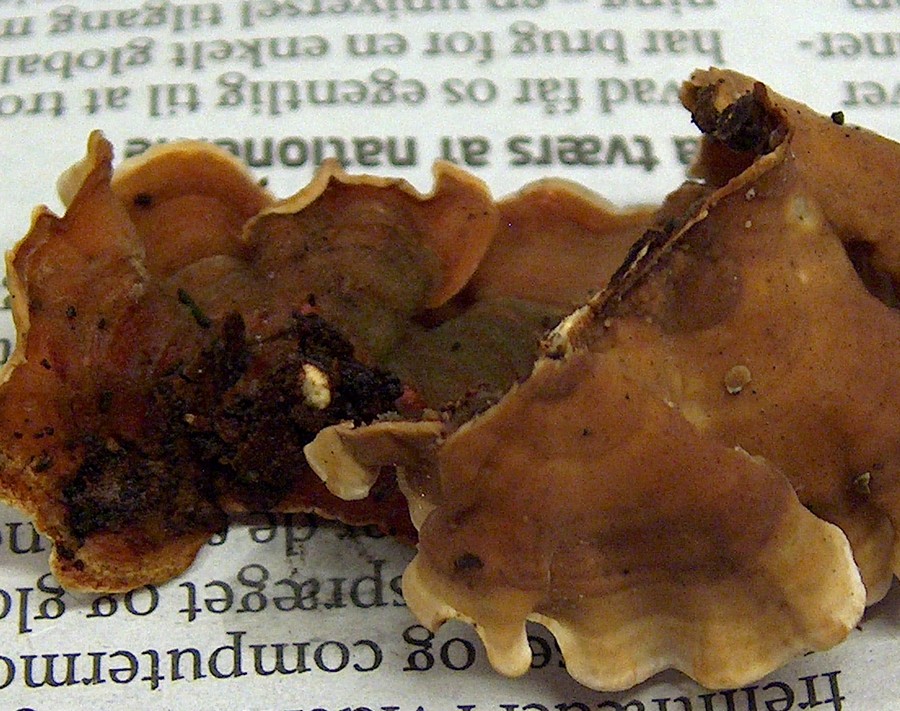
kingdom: Fungi
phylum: Basidiomycota
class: Agaricomycetes
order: Russulales
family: Stereaceae
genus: Stereum
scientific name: Stereum subtomentosum
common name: smuk lædersvamp
